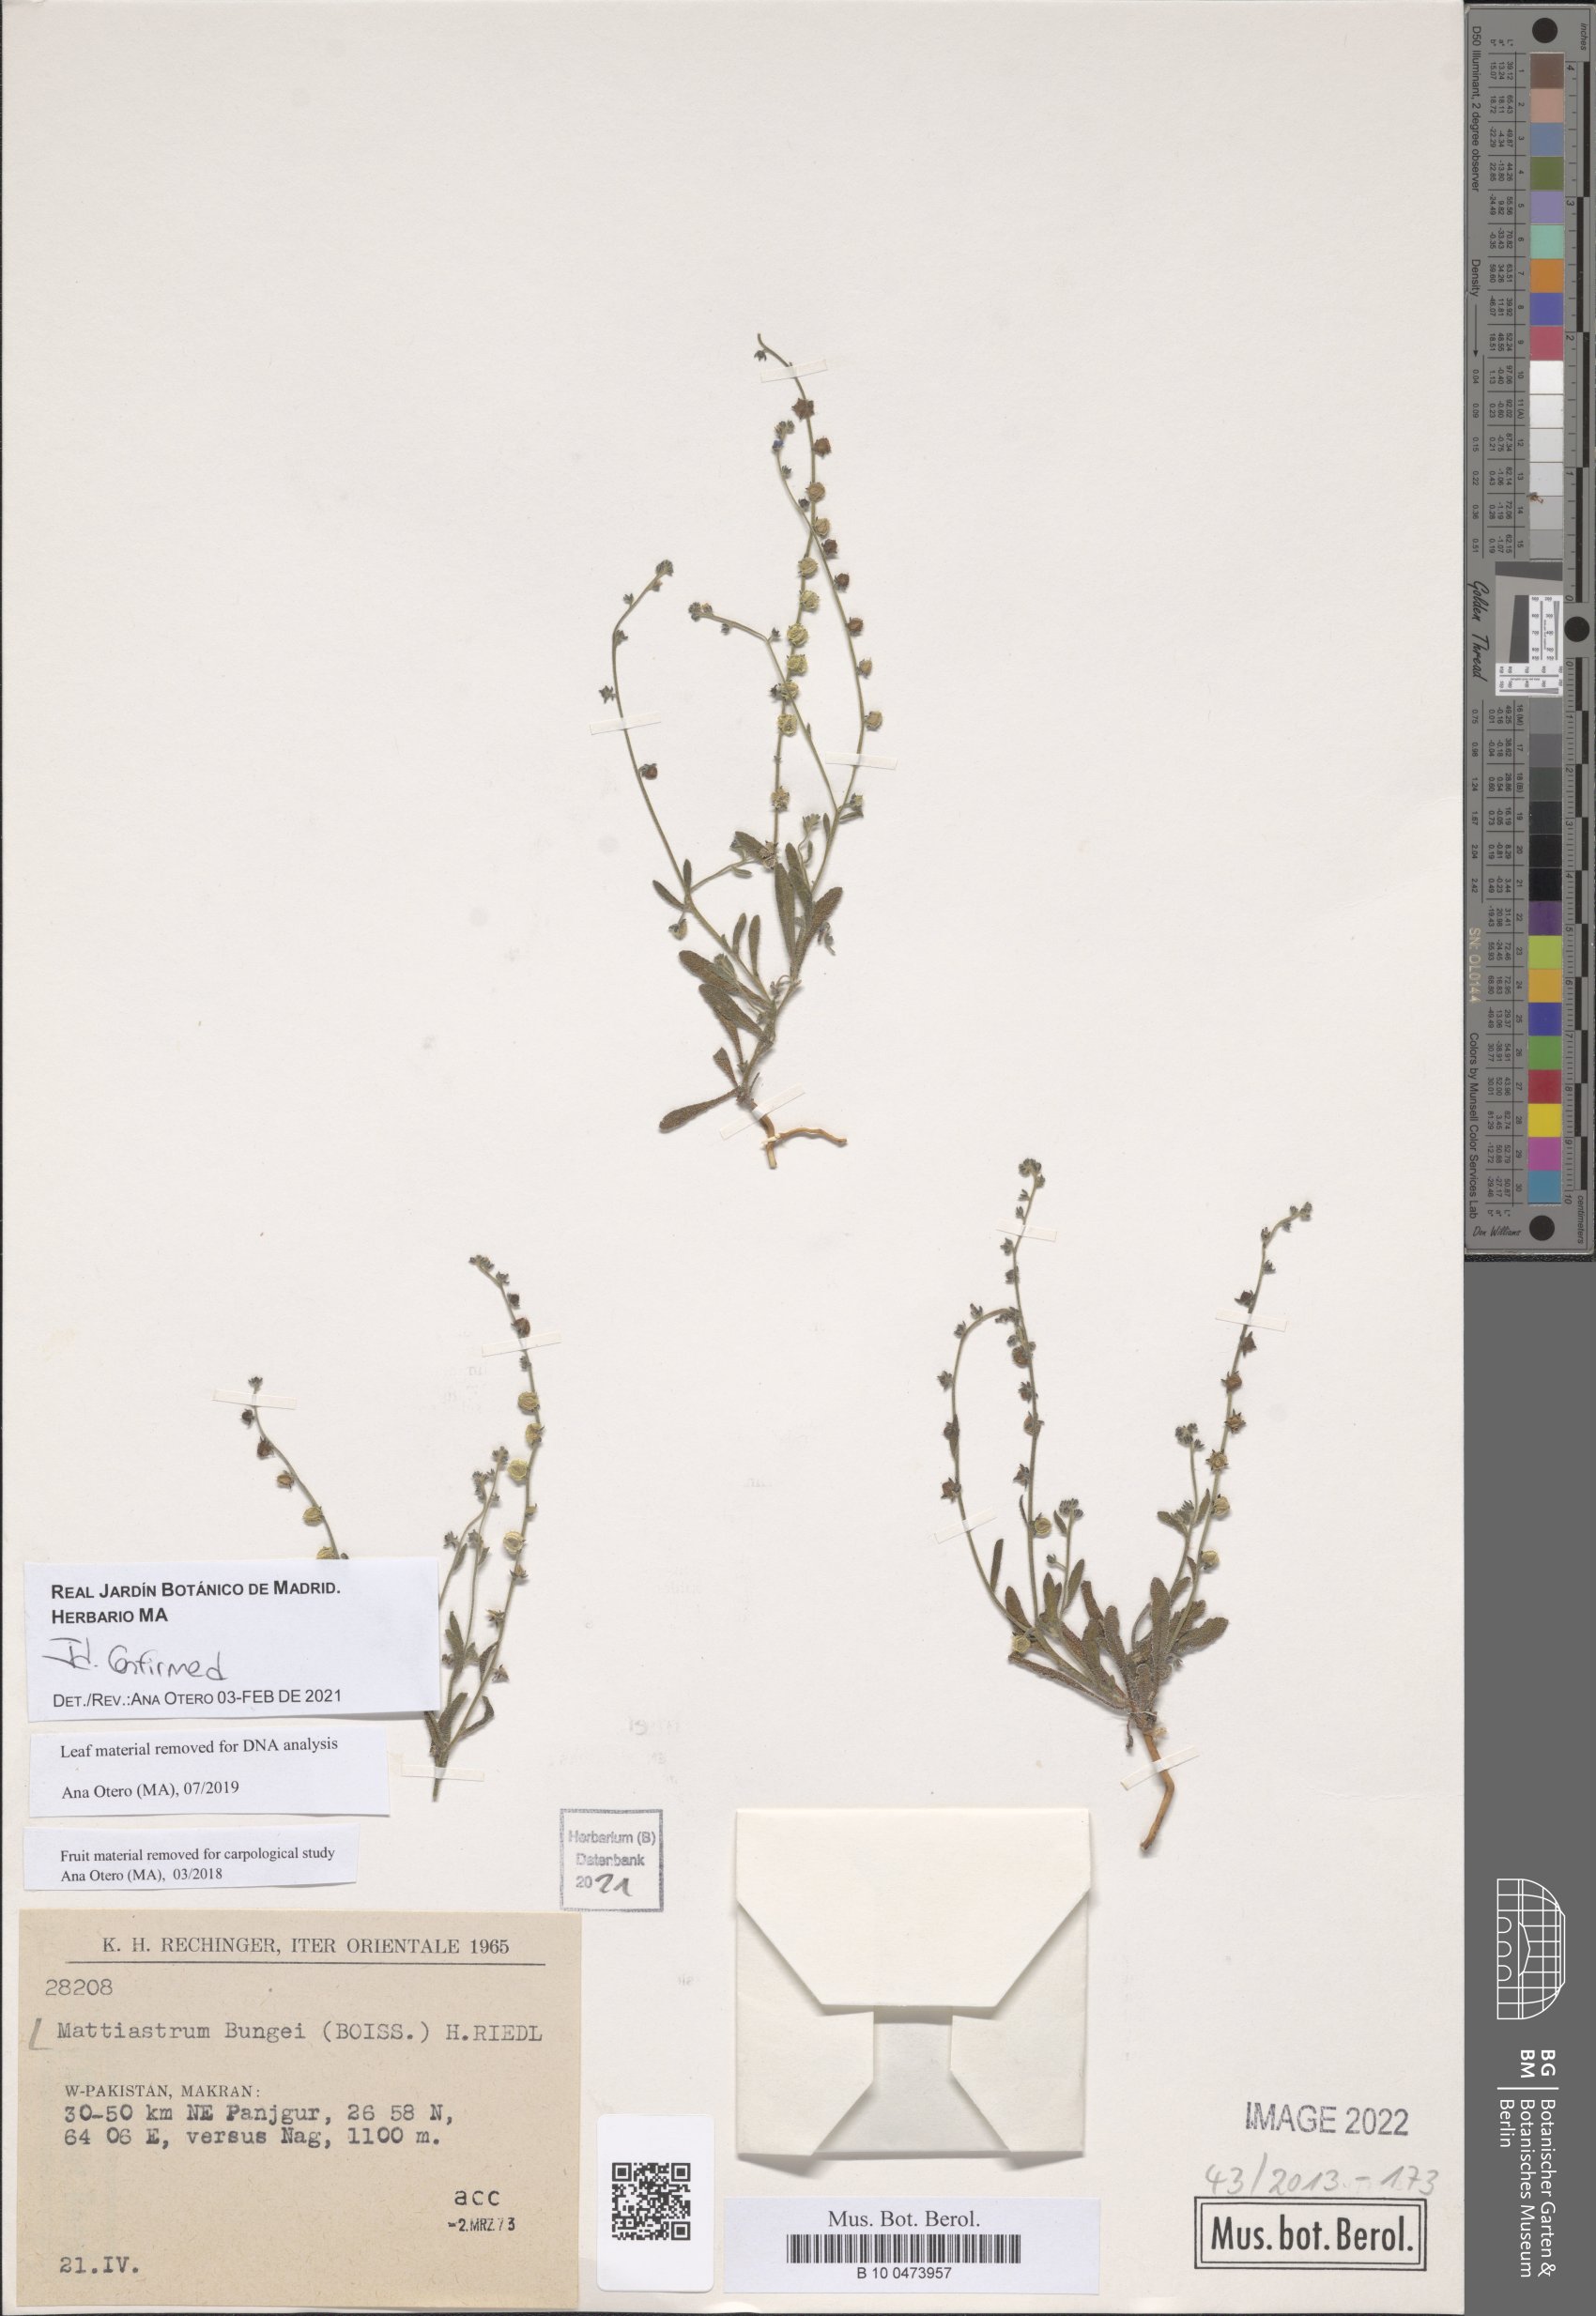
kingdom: Plantae
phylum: Tracheophyta
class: Magnoliopsida
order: Boraginales
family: Boraginaceae
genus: Microparacaryum
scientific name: Microparacaryum intermedium
